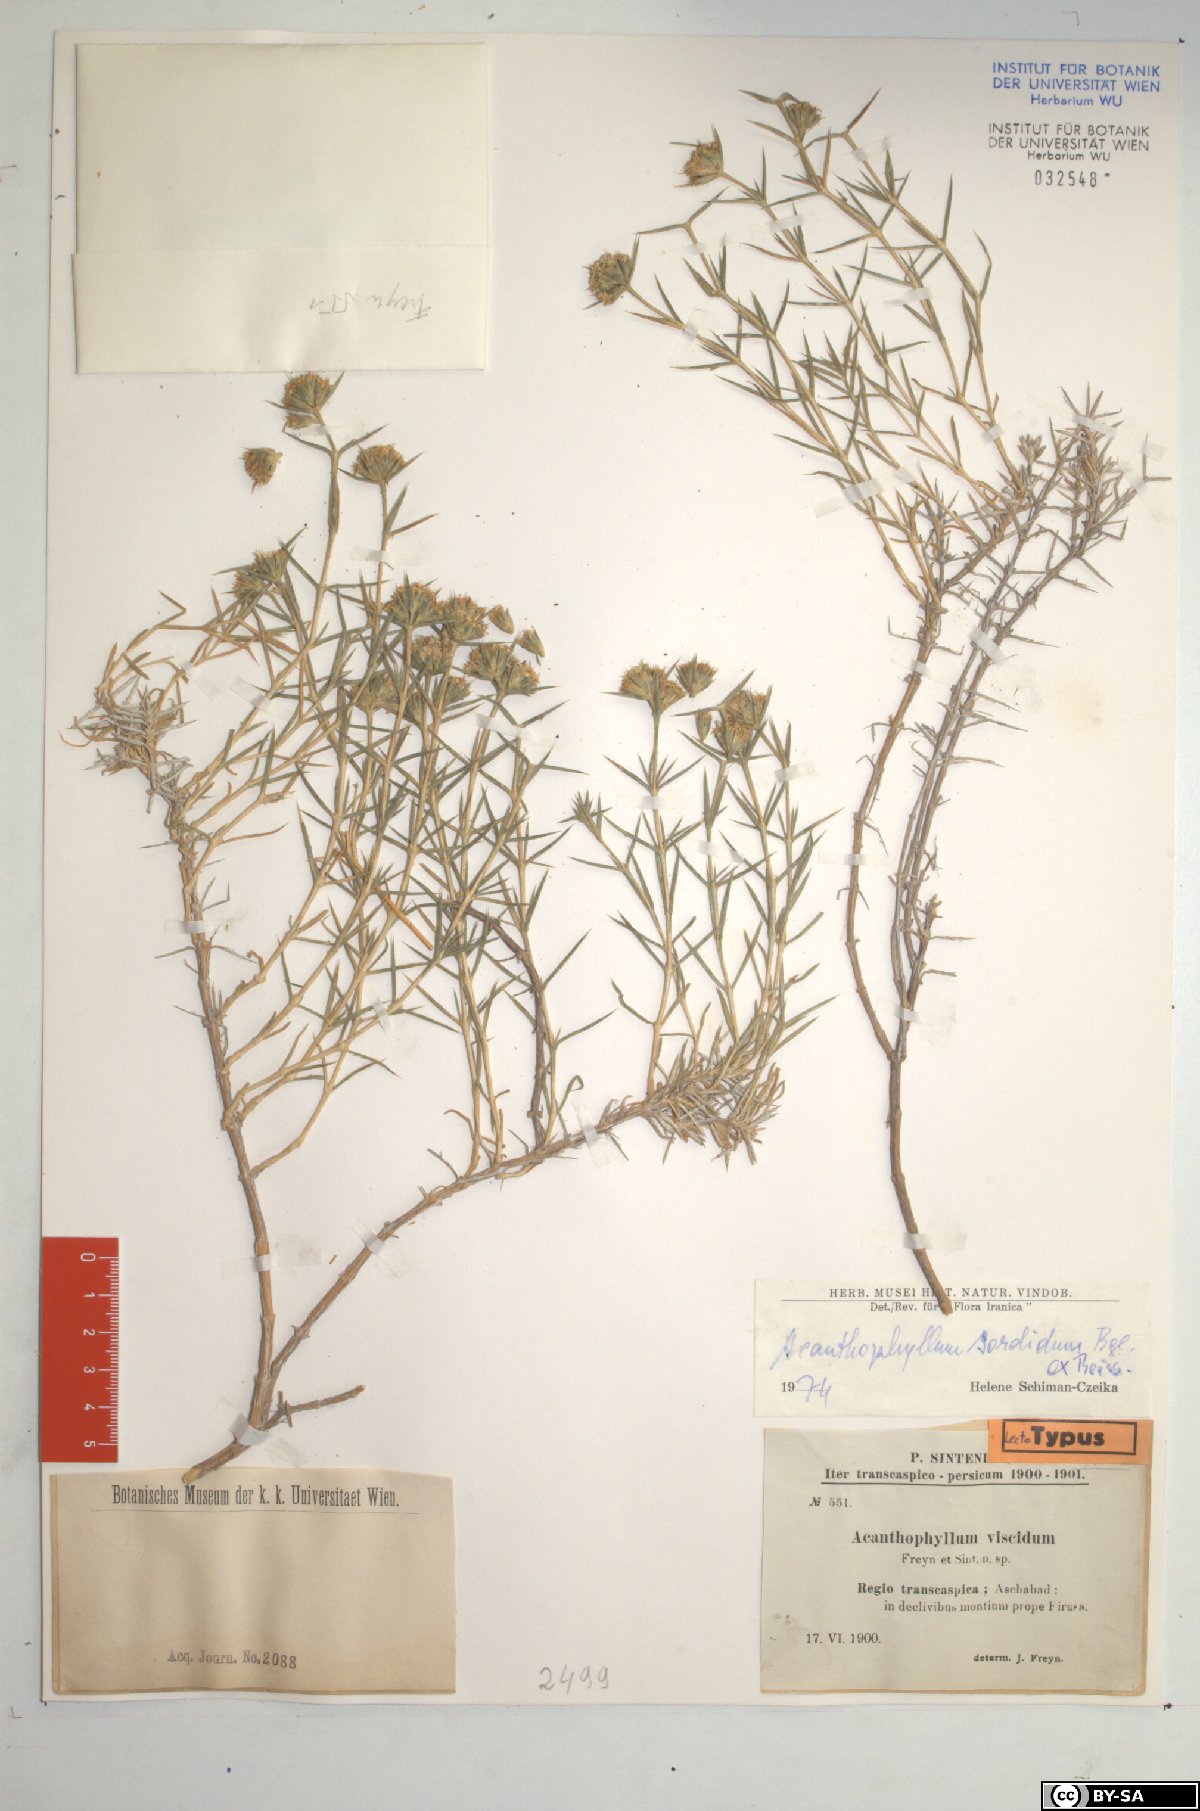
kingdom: Plantae
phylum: Tracheophyta
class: Magnoliopsida
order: Caryophyllales
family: Caryophyllaceae
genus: Acanthophyllum
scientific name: Acanthophyllum sordidum
